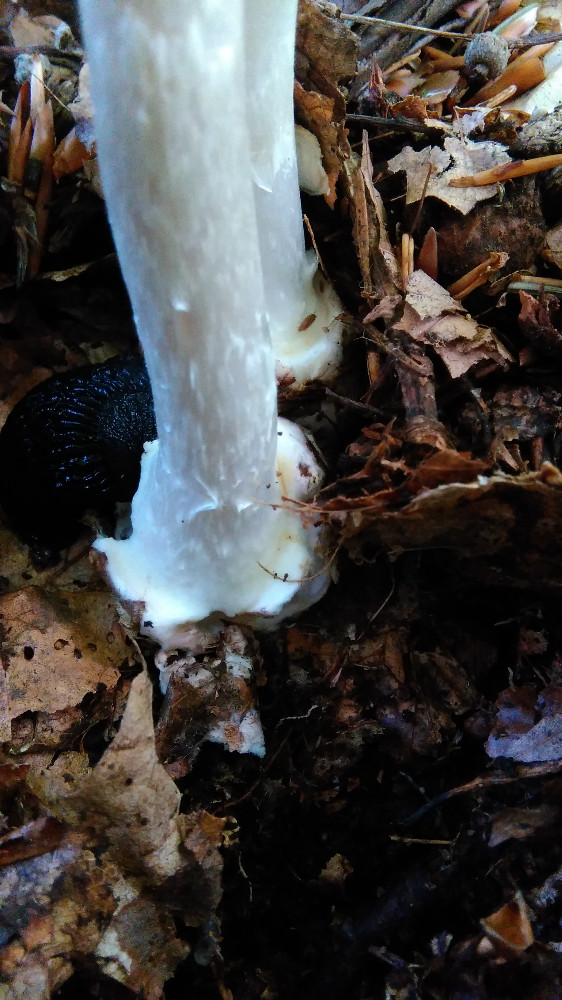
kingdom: Fungi
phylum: Basidiomycota
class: Agaricomycetes
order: Agaricales
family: Amanitaceae
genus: Amanita
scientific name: Amanita virosa
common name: snehvid fluesvamp
